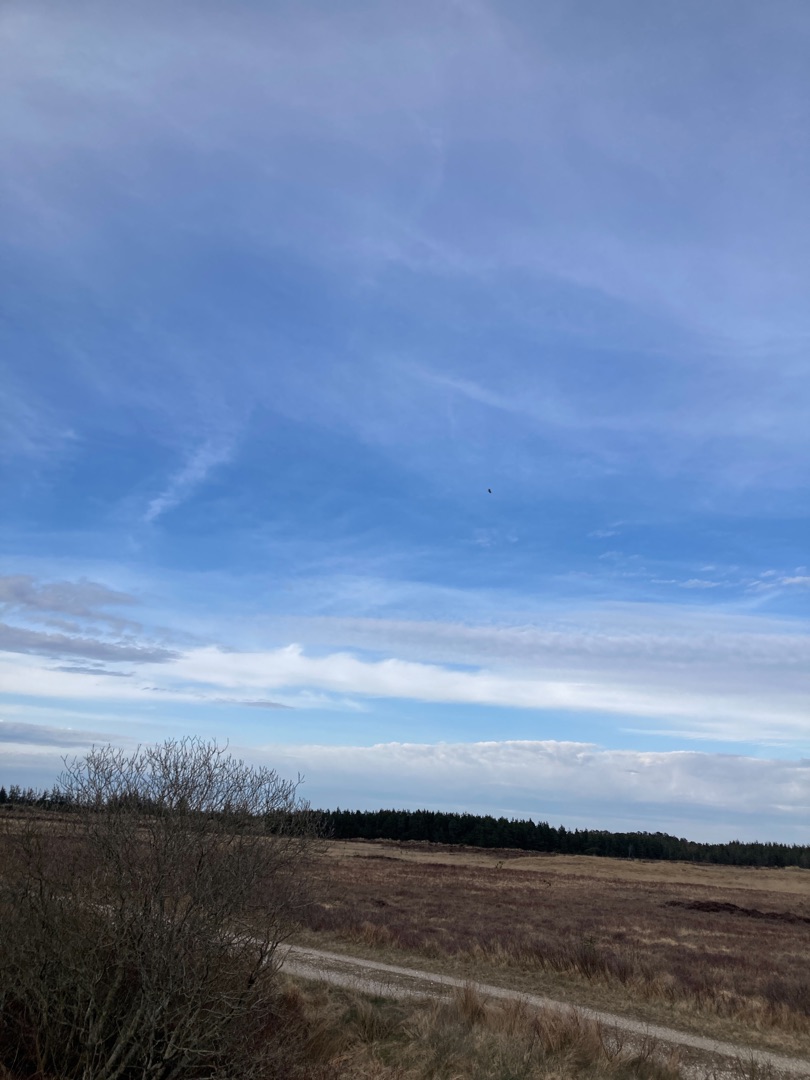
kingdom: Animalia
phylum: Chordata
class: Aves
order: Accipitriformes
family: Accipitridae
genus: Haliaeetus
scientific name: Haliaeetus albicilla
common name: Havørn
